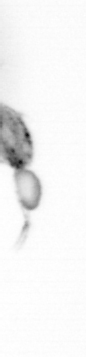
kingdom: Animalia
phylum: Arthropoda
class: Copepoda
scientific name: Copepoda
